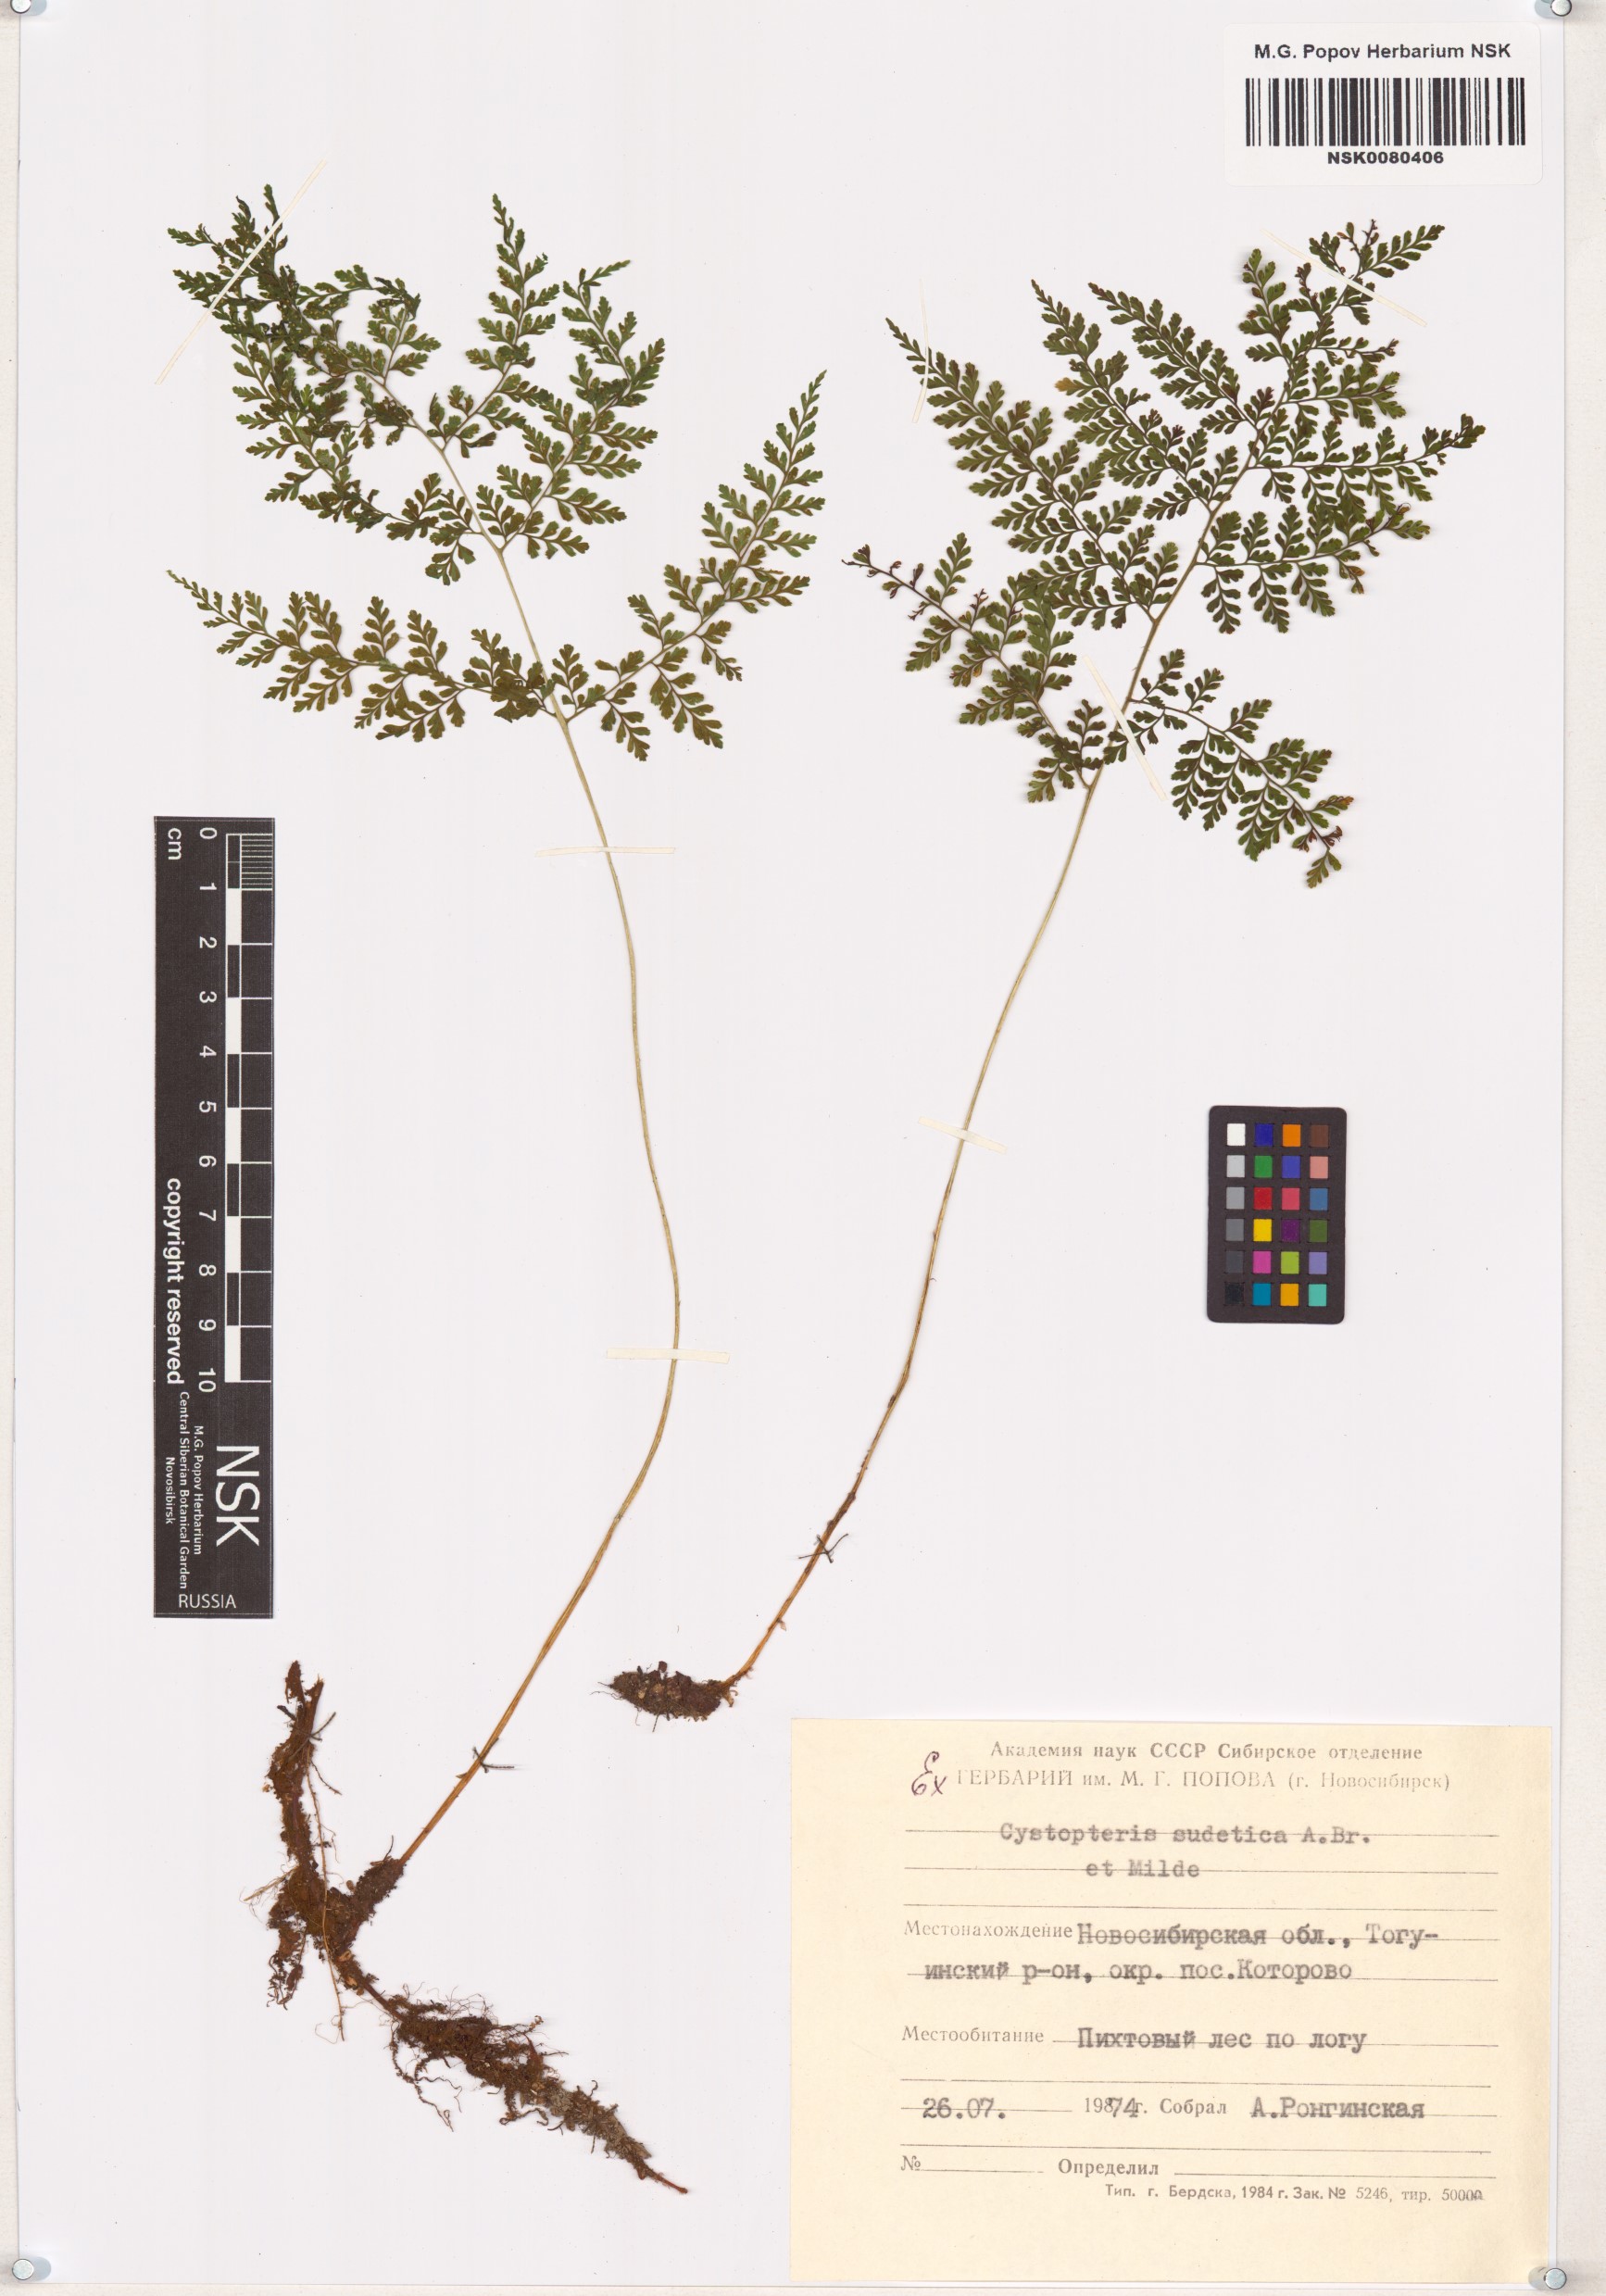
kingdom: Plantae
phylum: Tracheophyta
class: Polypodiopsida
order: Polypodiales
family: Cystopteridaceae
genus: Cystopteris
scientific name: Cystopteris sudetica
